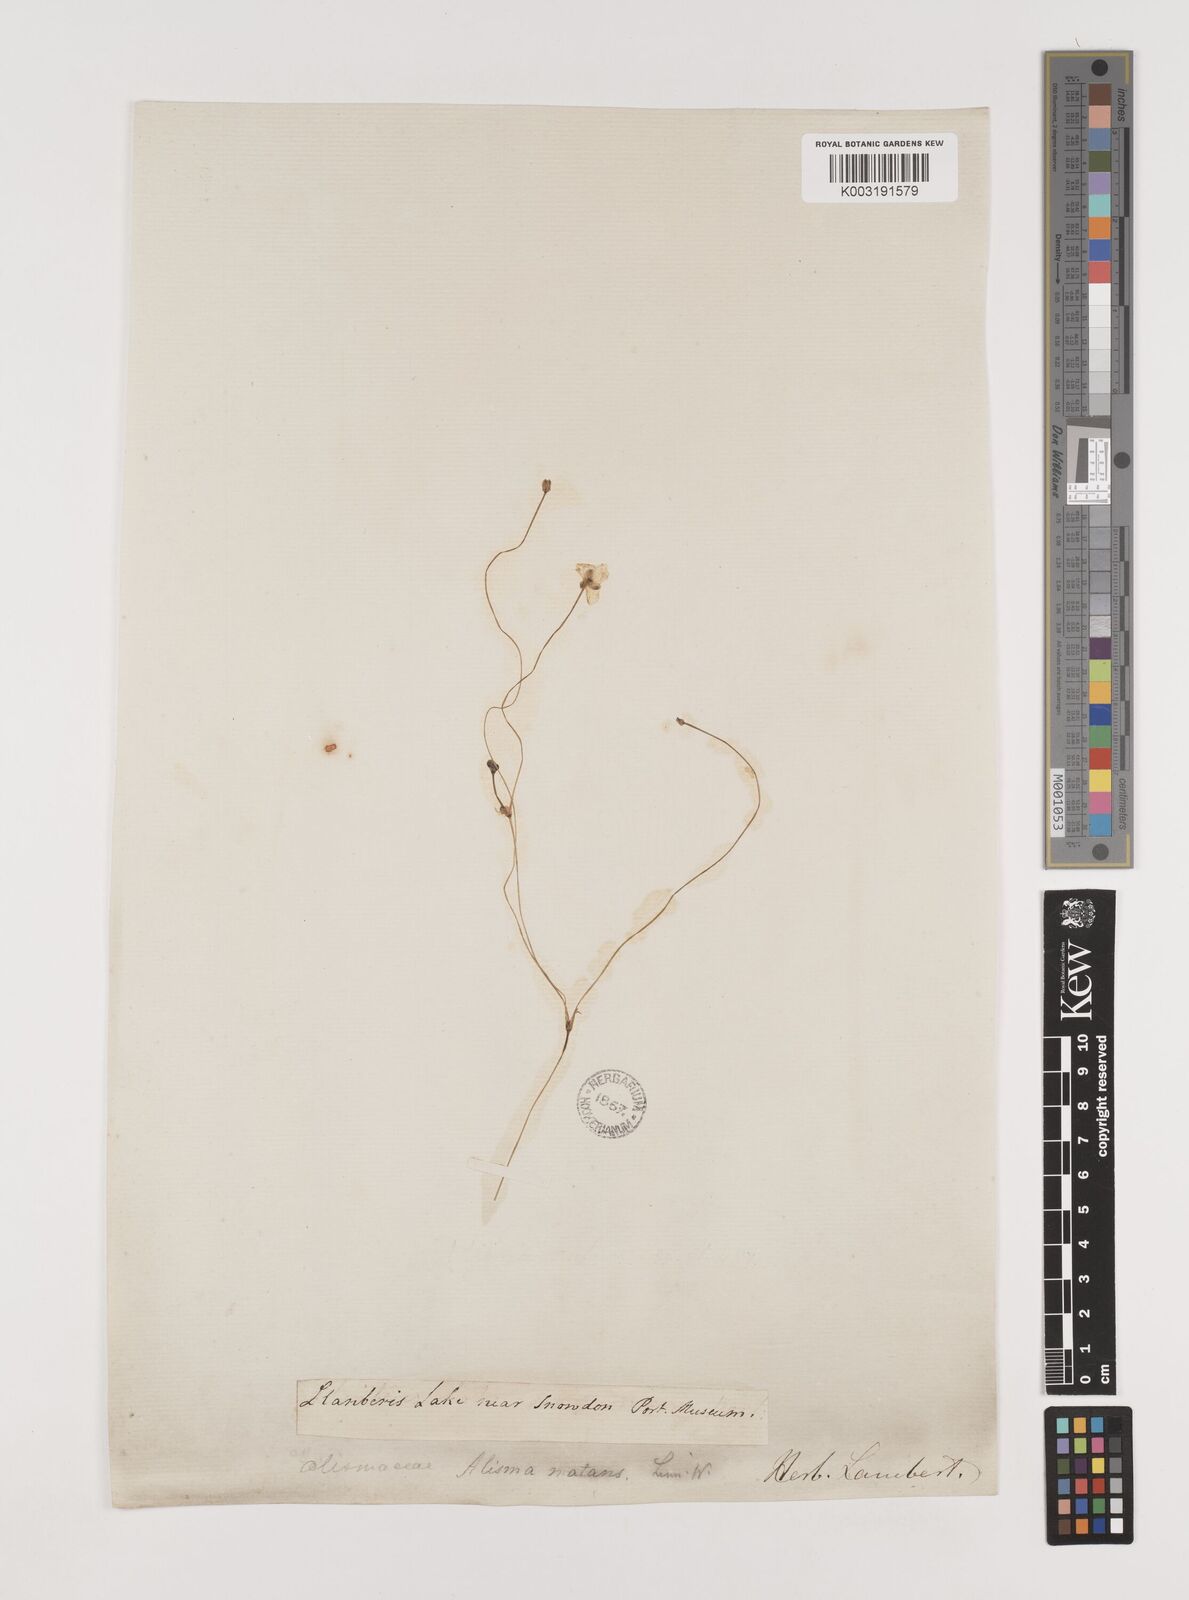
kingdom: Plantae
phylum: Tracheophyta
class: Liliopsida
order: Alismatales
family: Alismataceae
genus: Luronium
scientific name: Luronium natans
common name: Floating water-plantain
